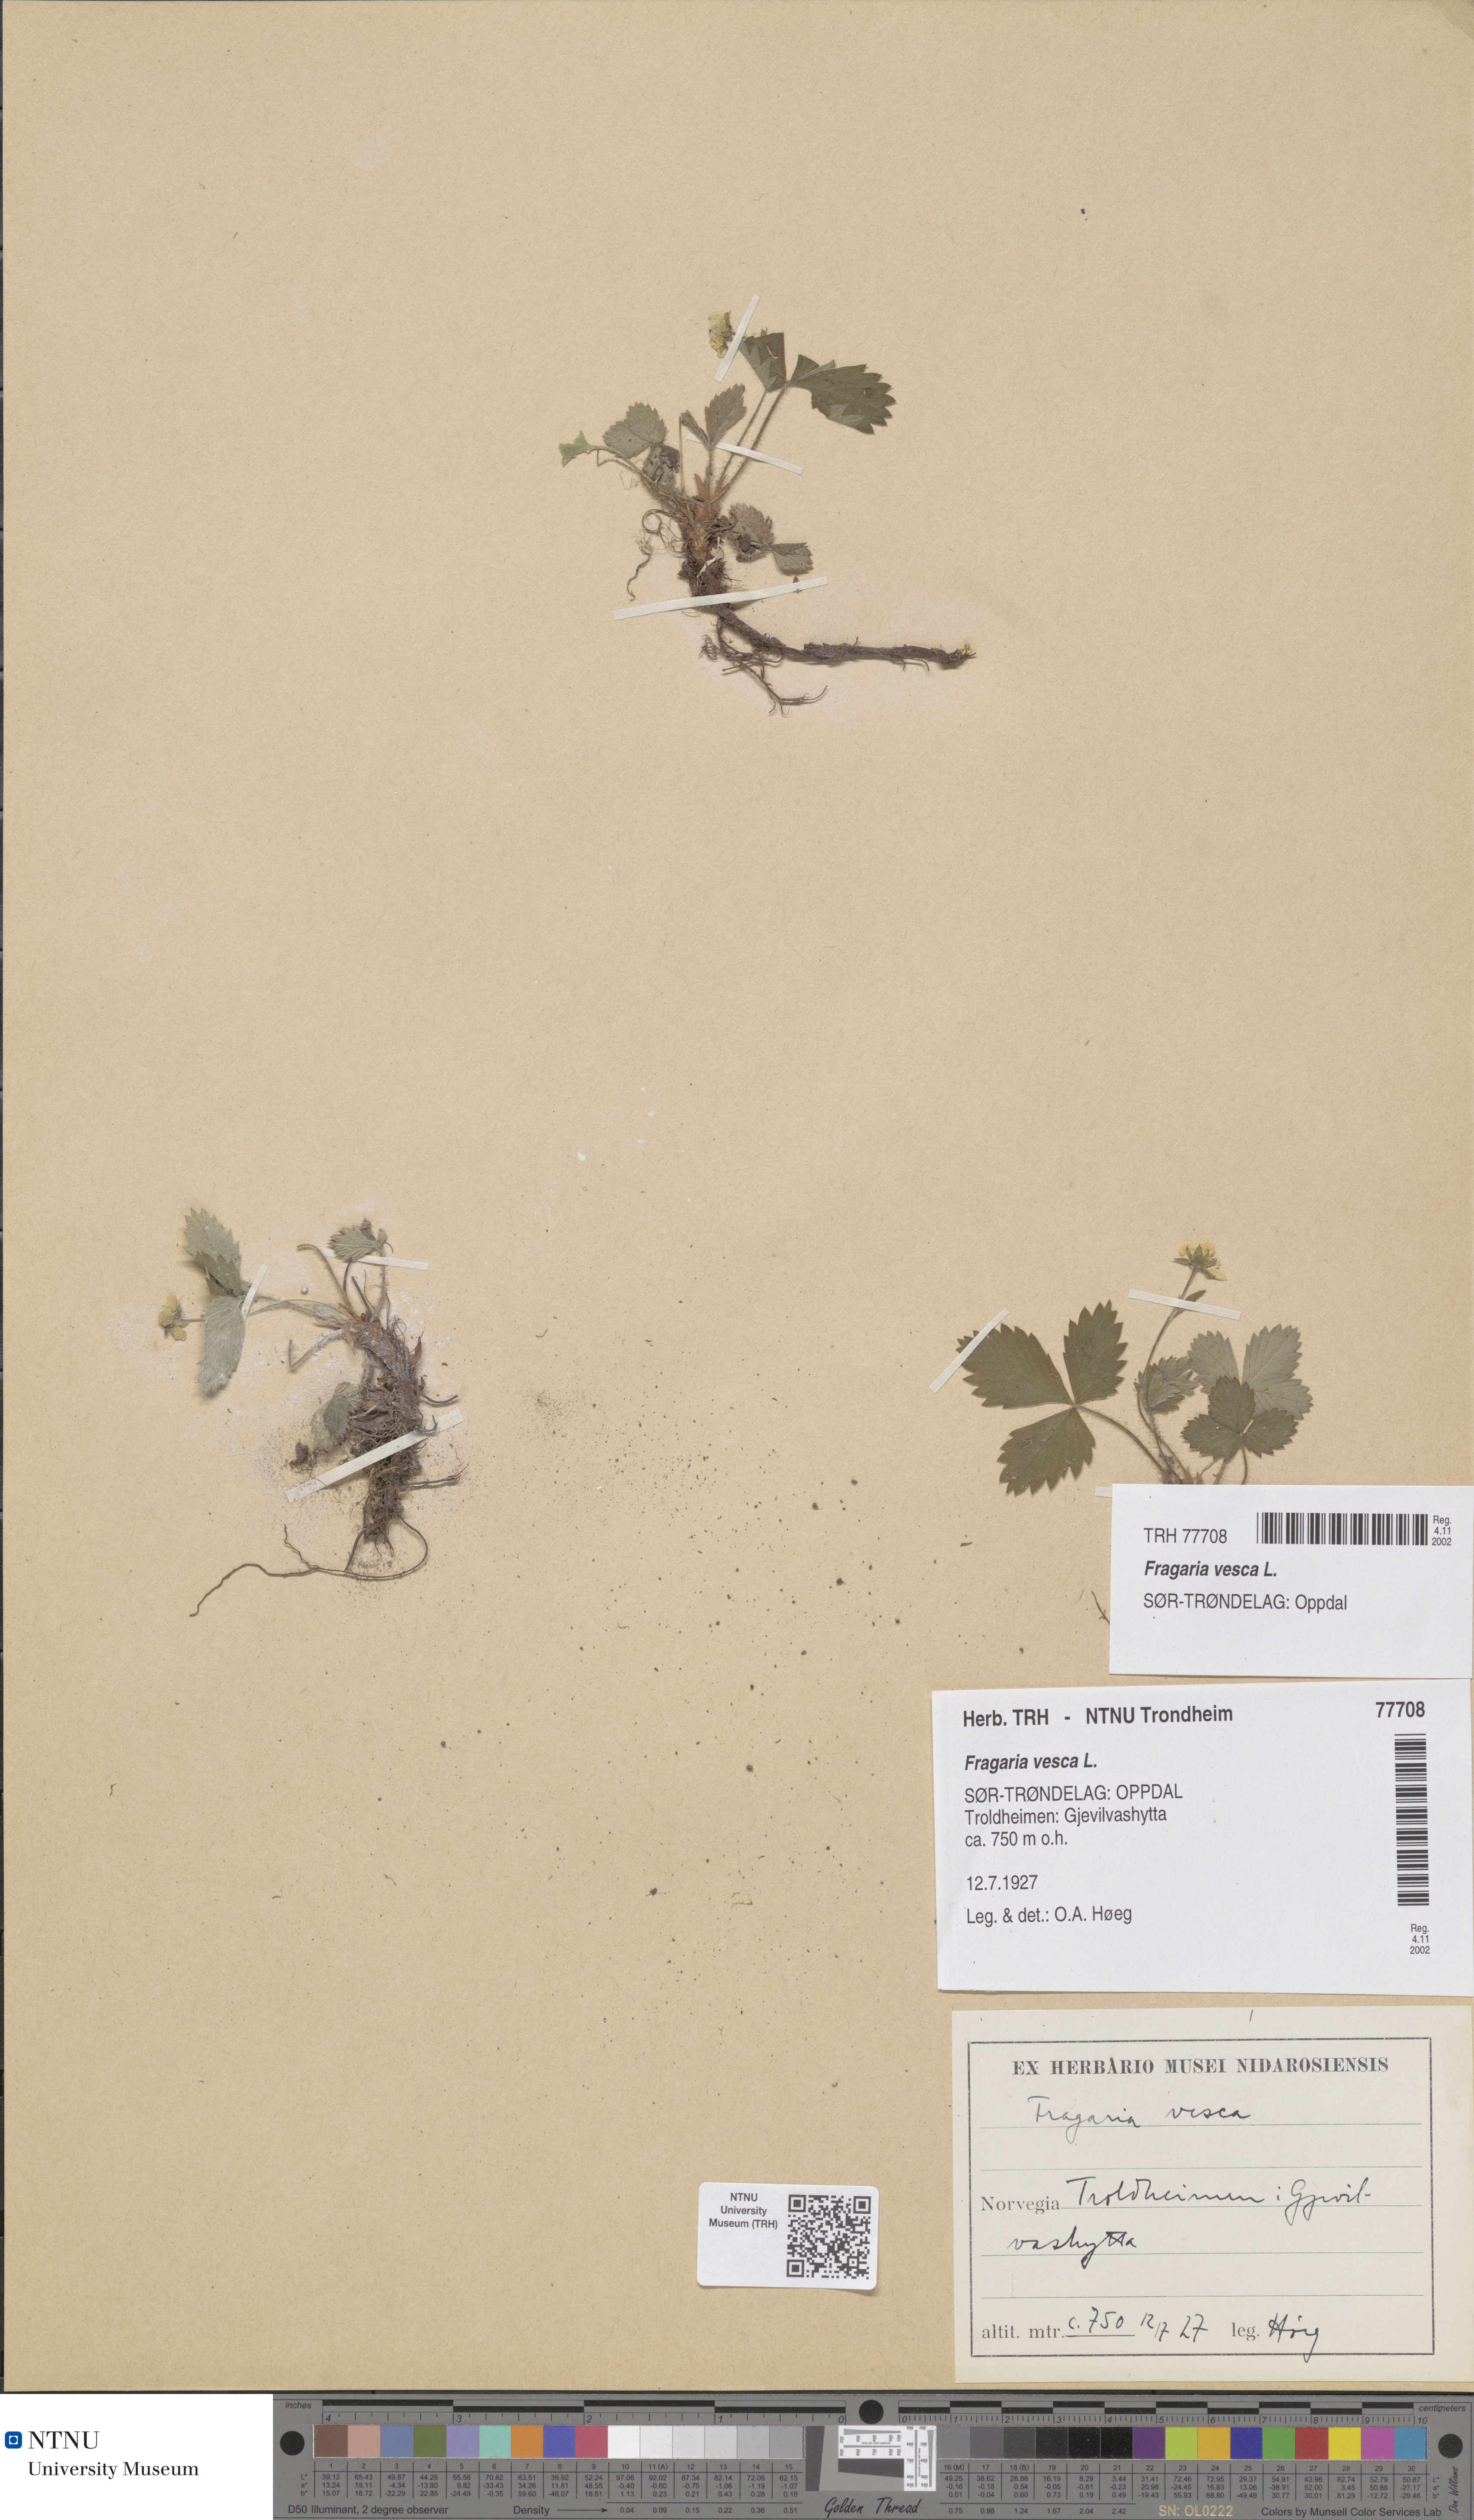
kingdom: Plantae
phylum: Tracheophyta
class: Magnoliopsida
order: Rosales
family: Rosaceae
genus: Fragaria
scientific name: Fragaria vesca
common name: Wild strawberry
